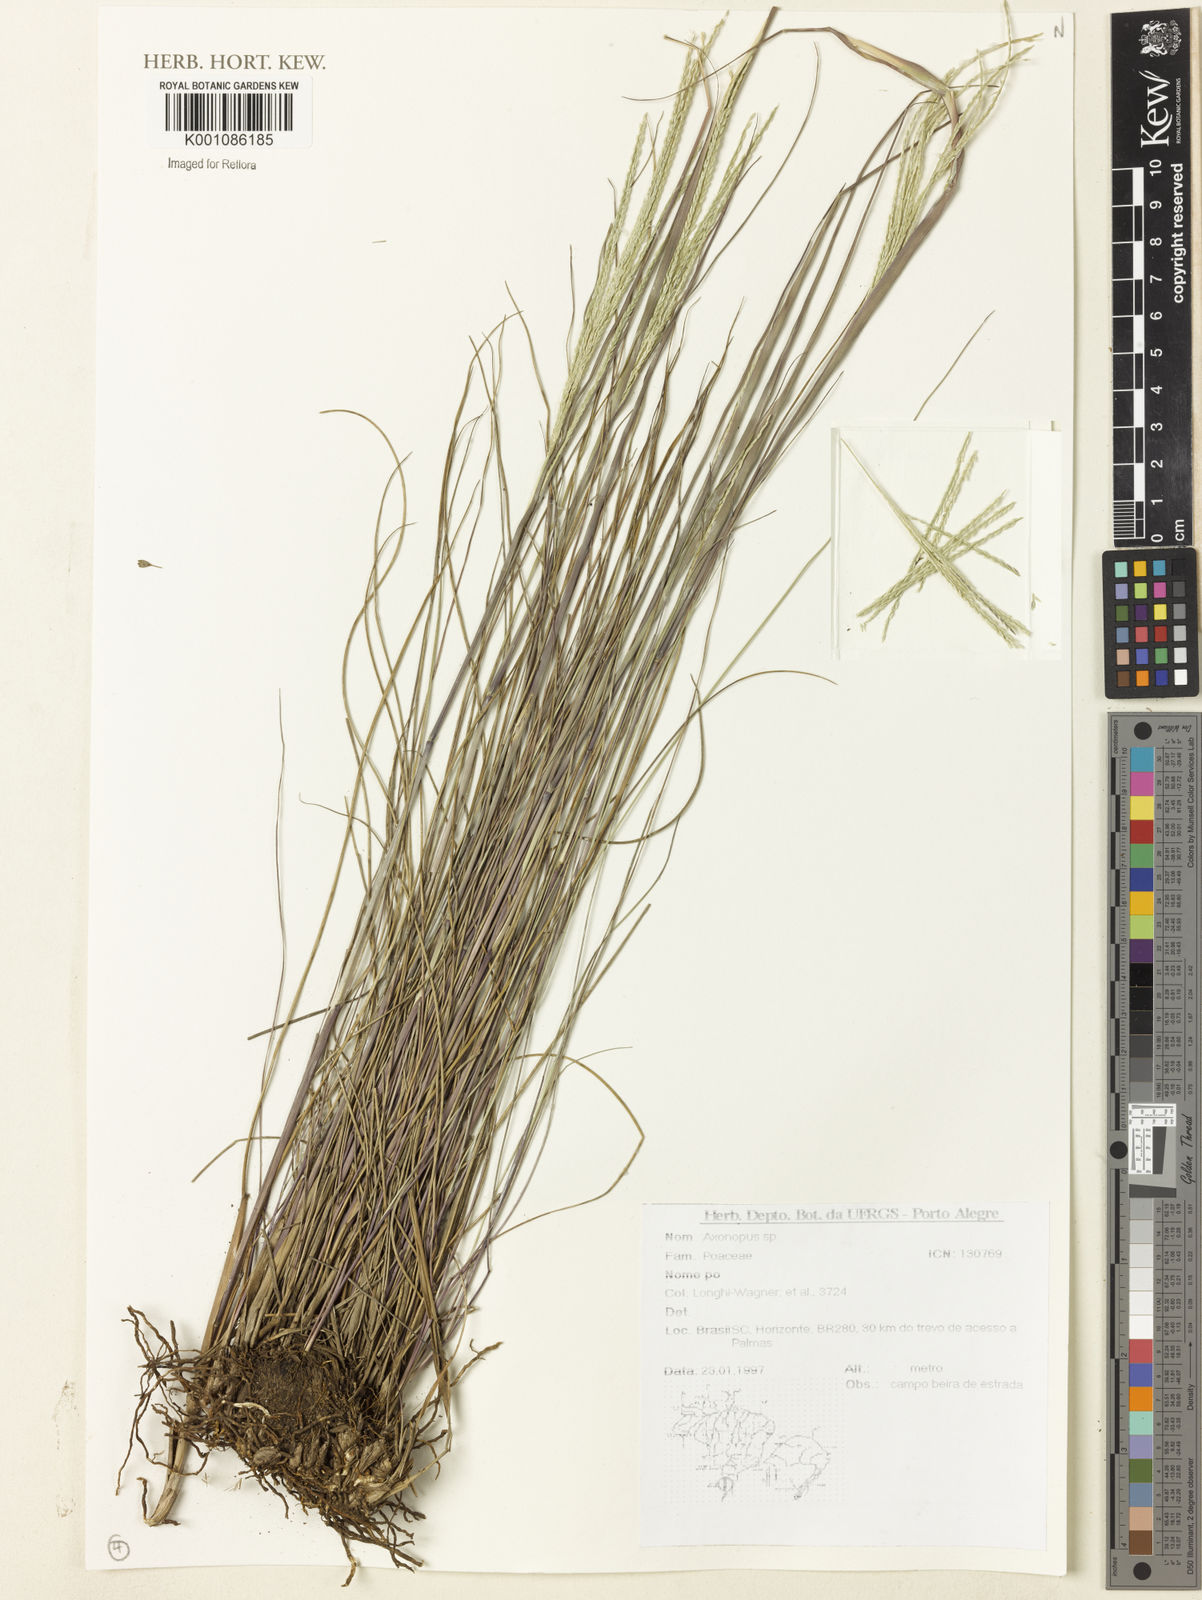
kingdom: Plantae
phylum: Tracheophyta
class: Liliopsida
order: Poales
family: Poaceae
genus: Axonopus
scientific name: Axonopus
